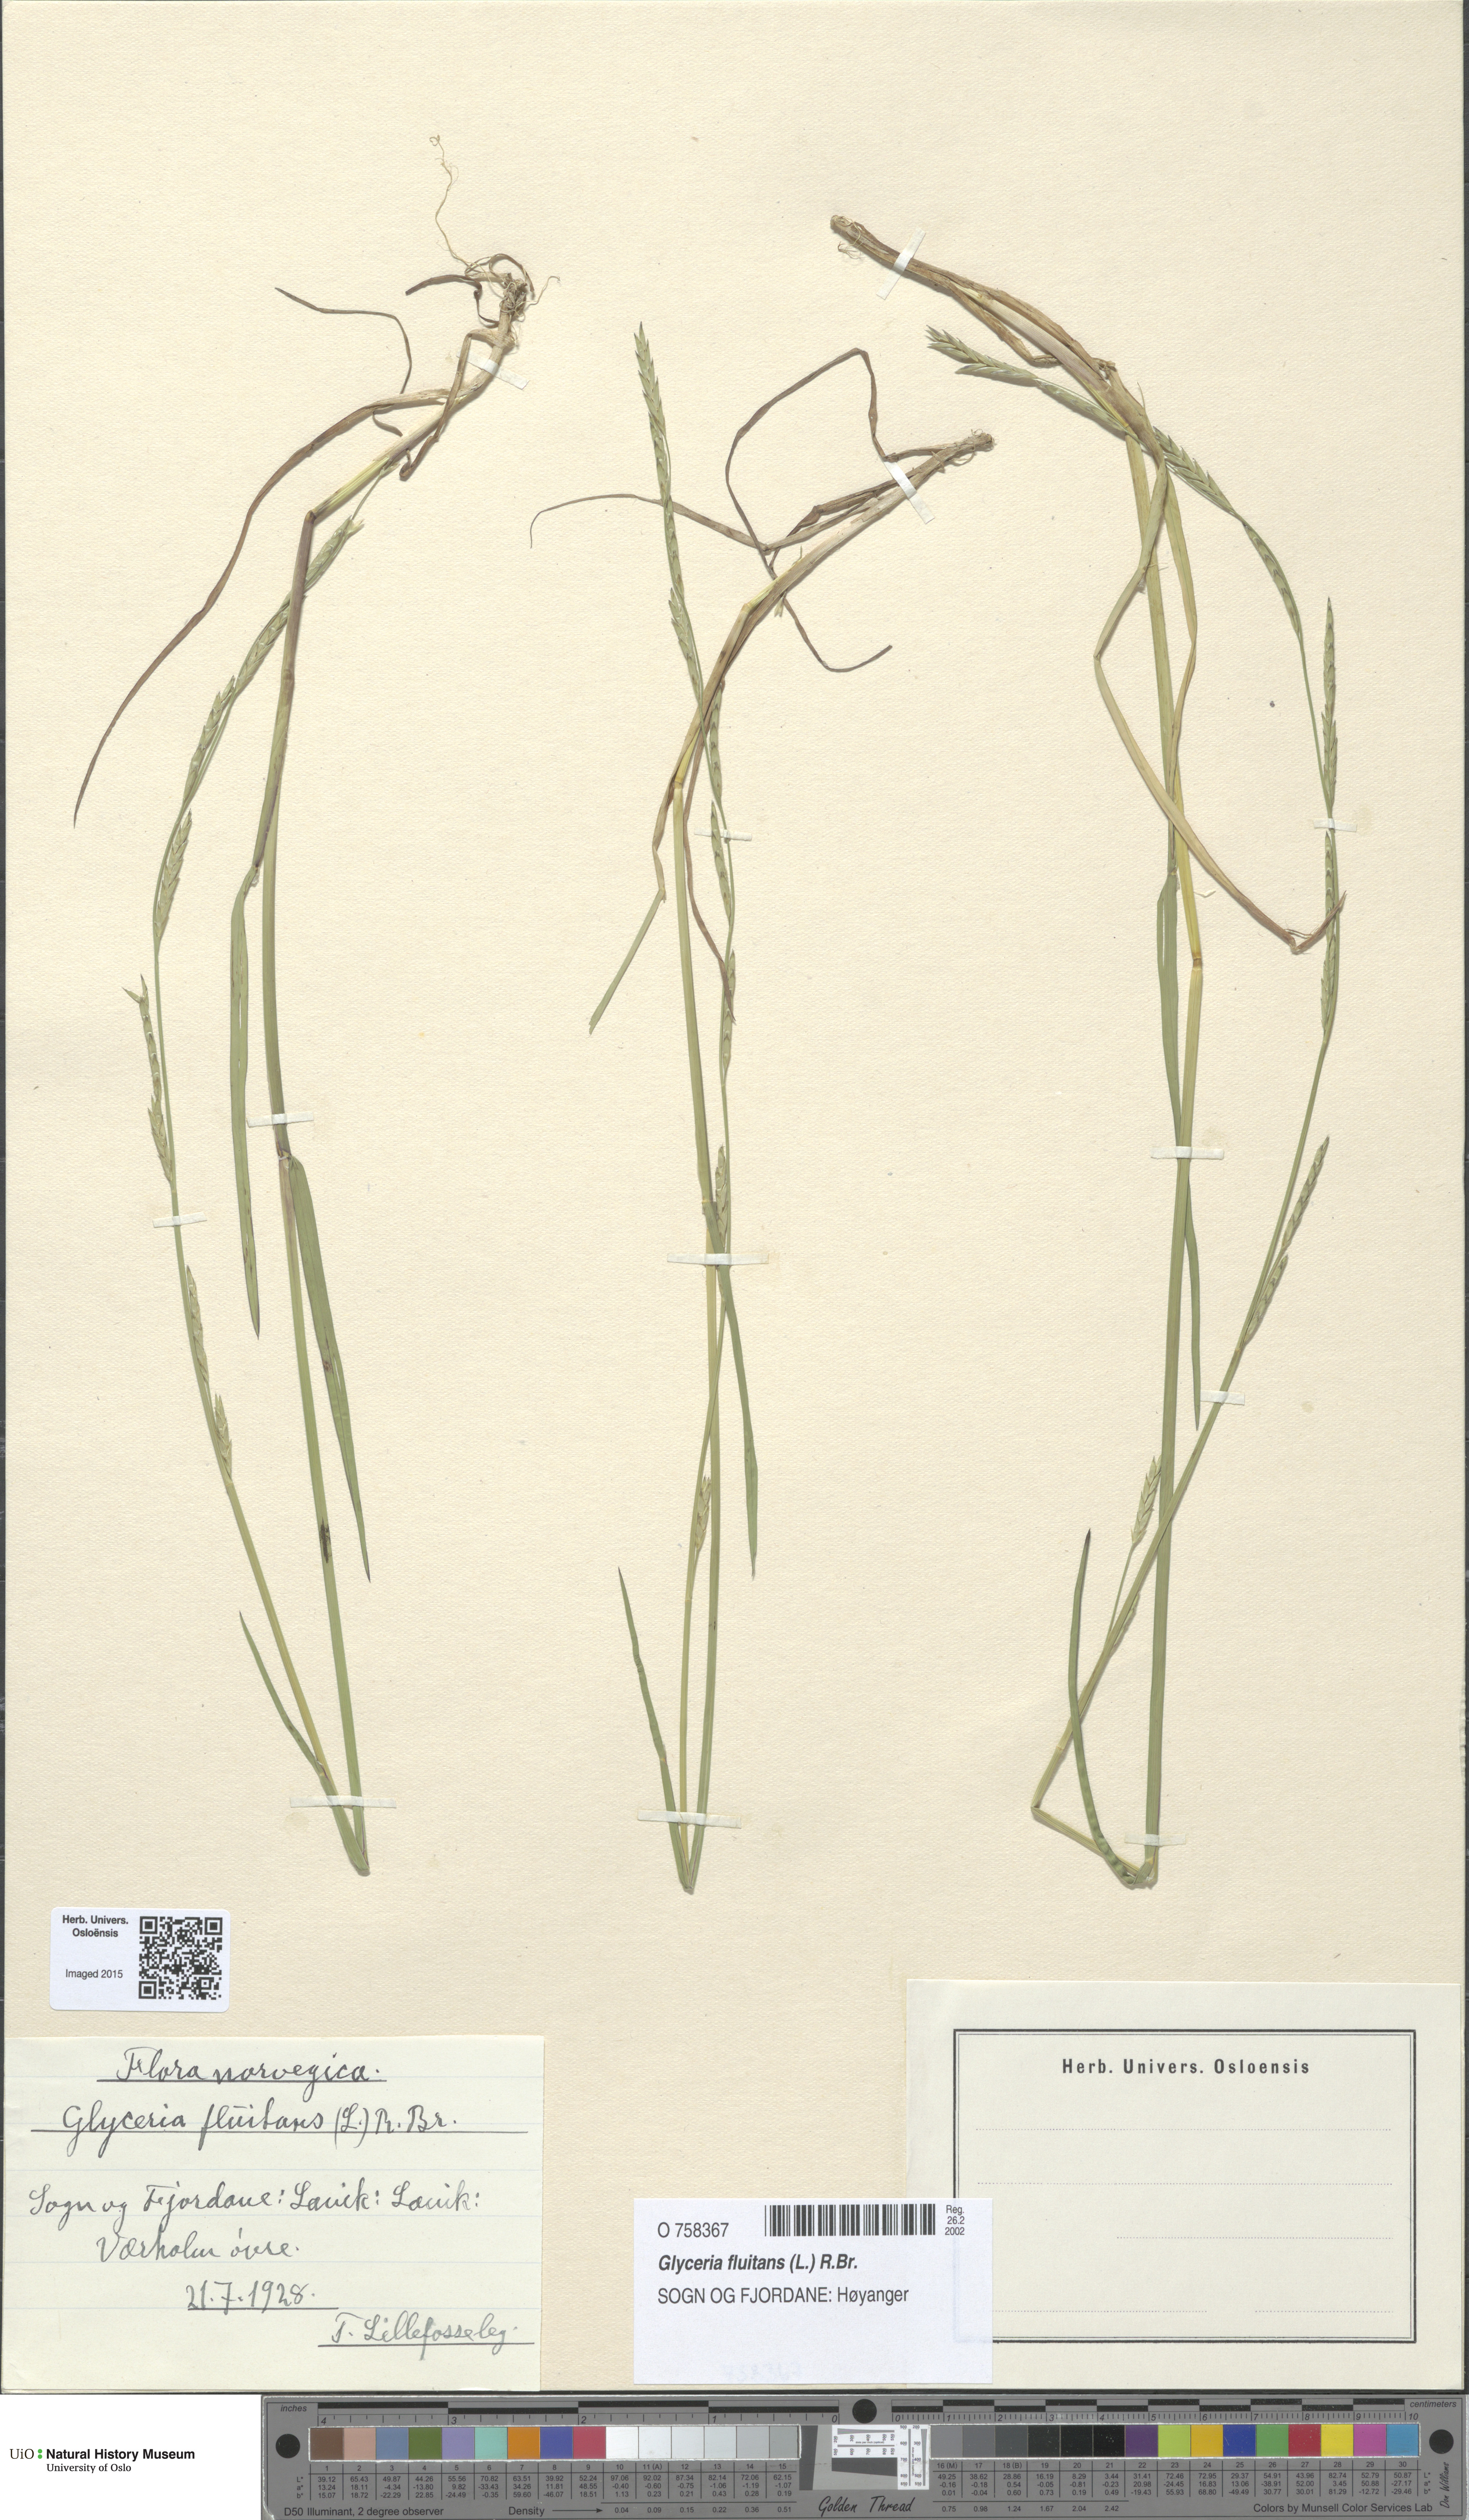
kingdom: Plantae
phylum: Tracheophyta
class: Liliopsida
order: Poales
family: Poaceae
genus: Glyceria
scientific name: Glyceria fluitans
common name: Floating sweet-grass
